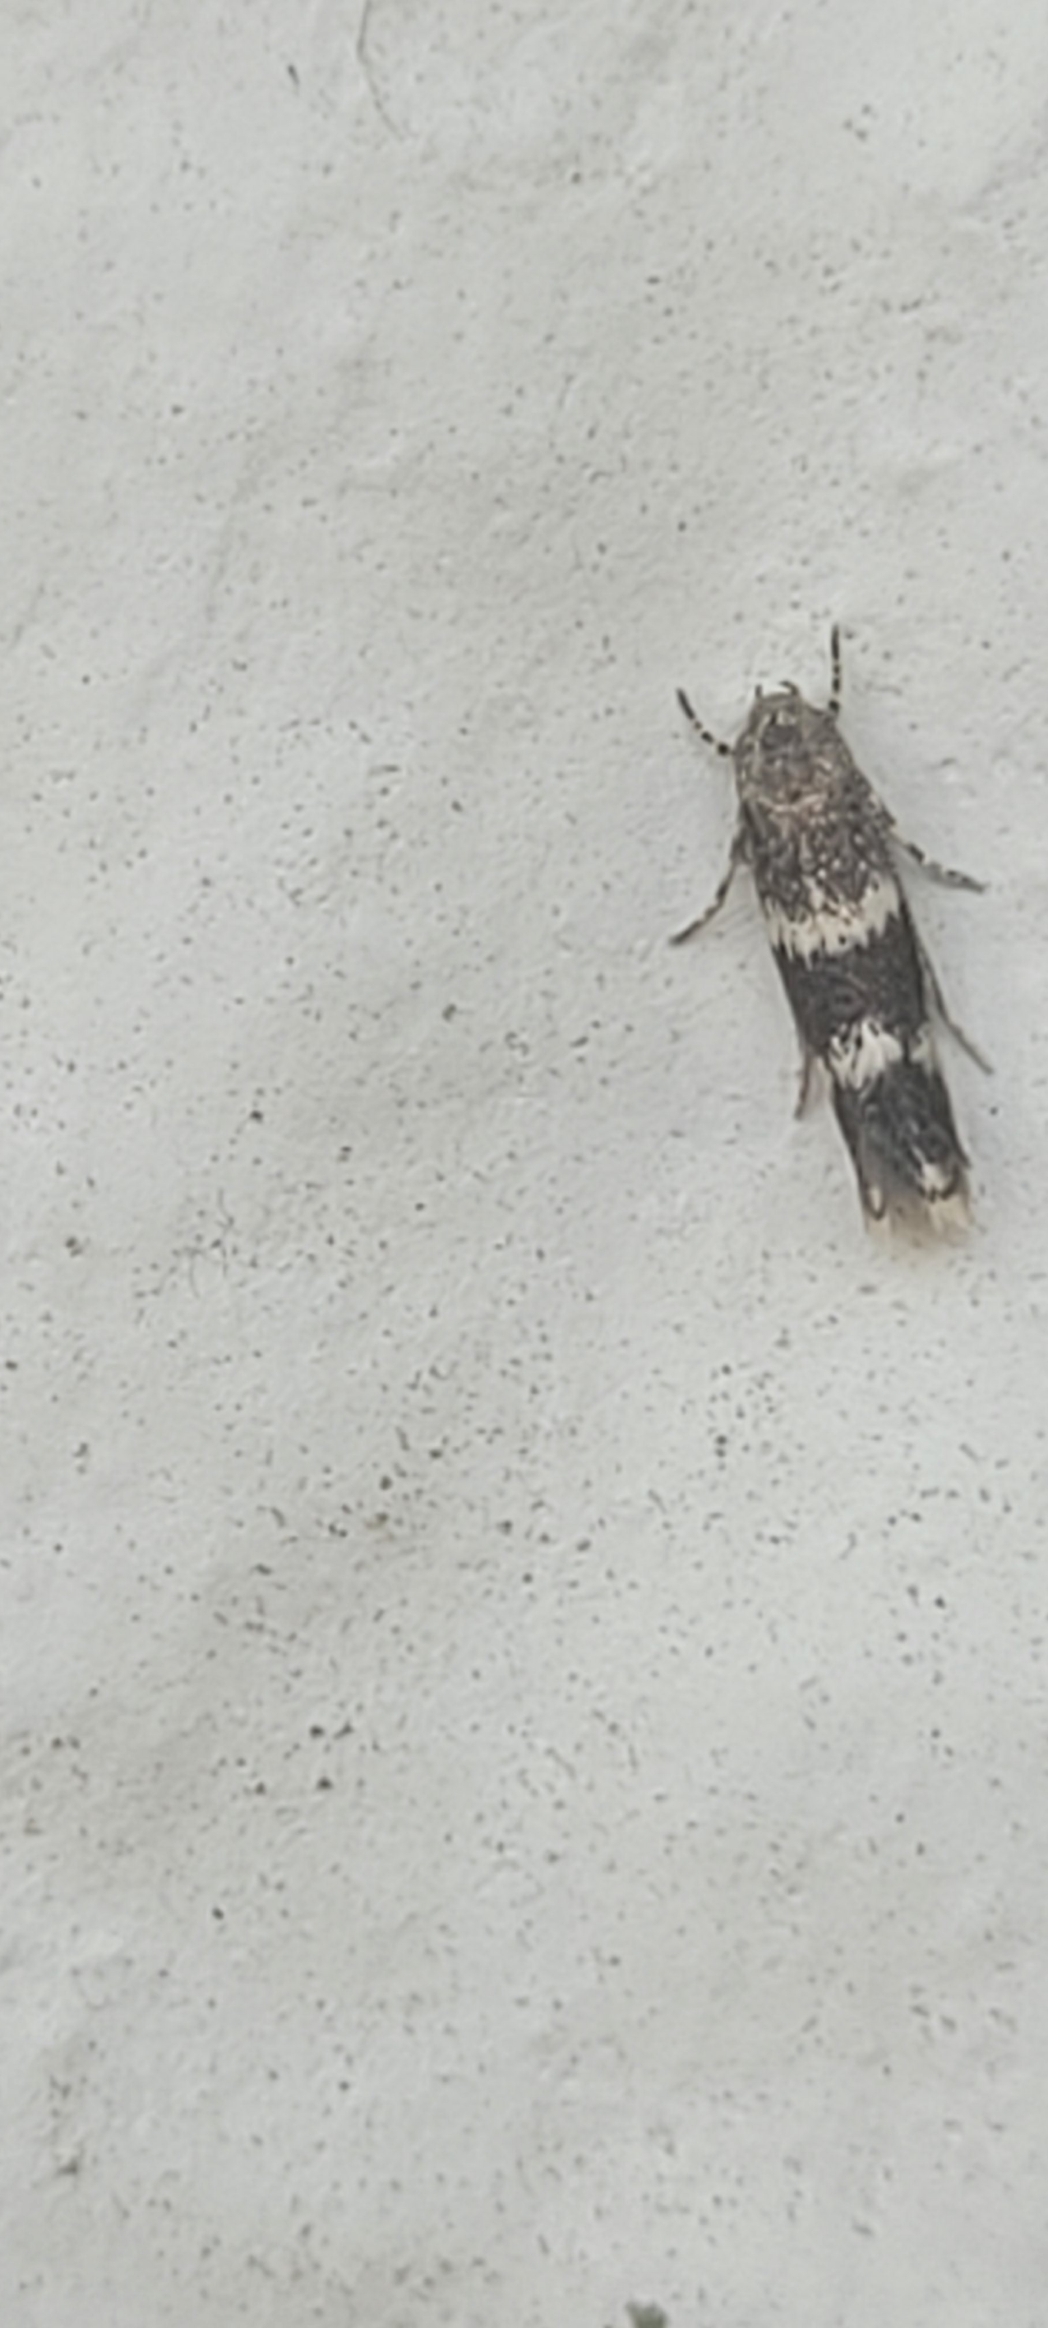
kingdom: Animalia
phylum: Arthropoda
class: Insecta
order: Lepidoptera
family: Elachistidae
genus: Elachista
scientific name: Elachista atricomella
